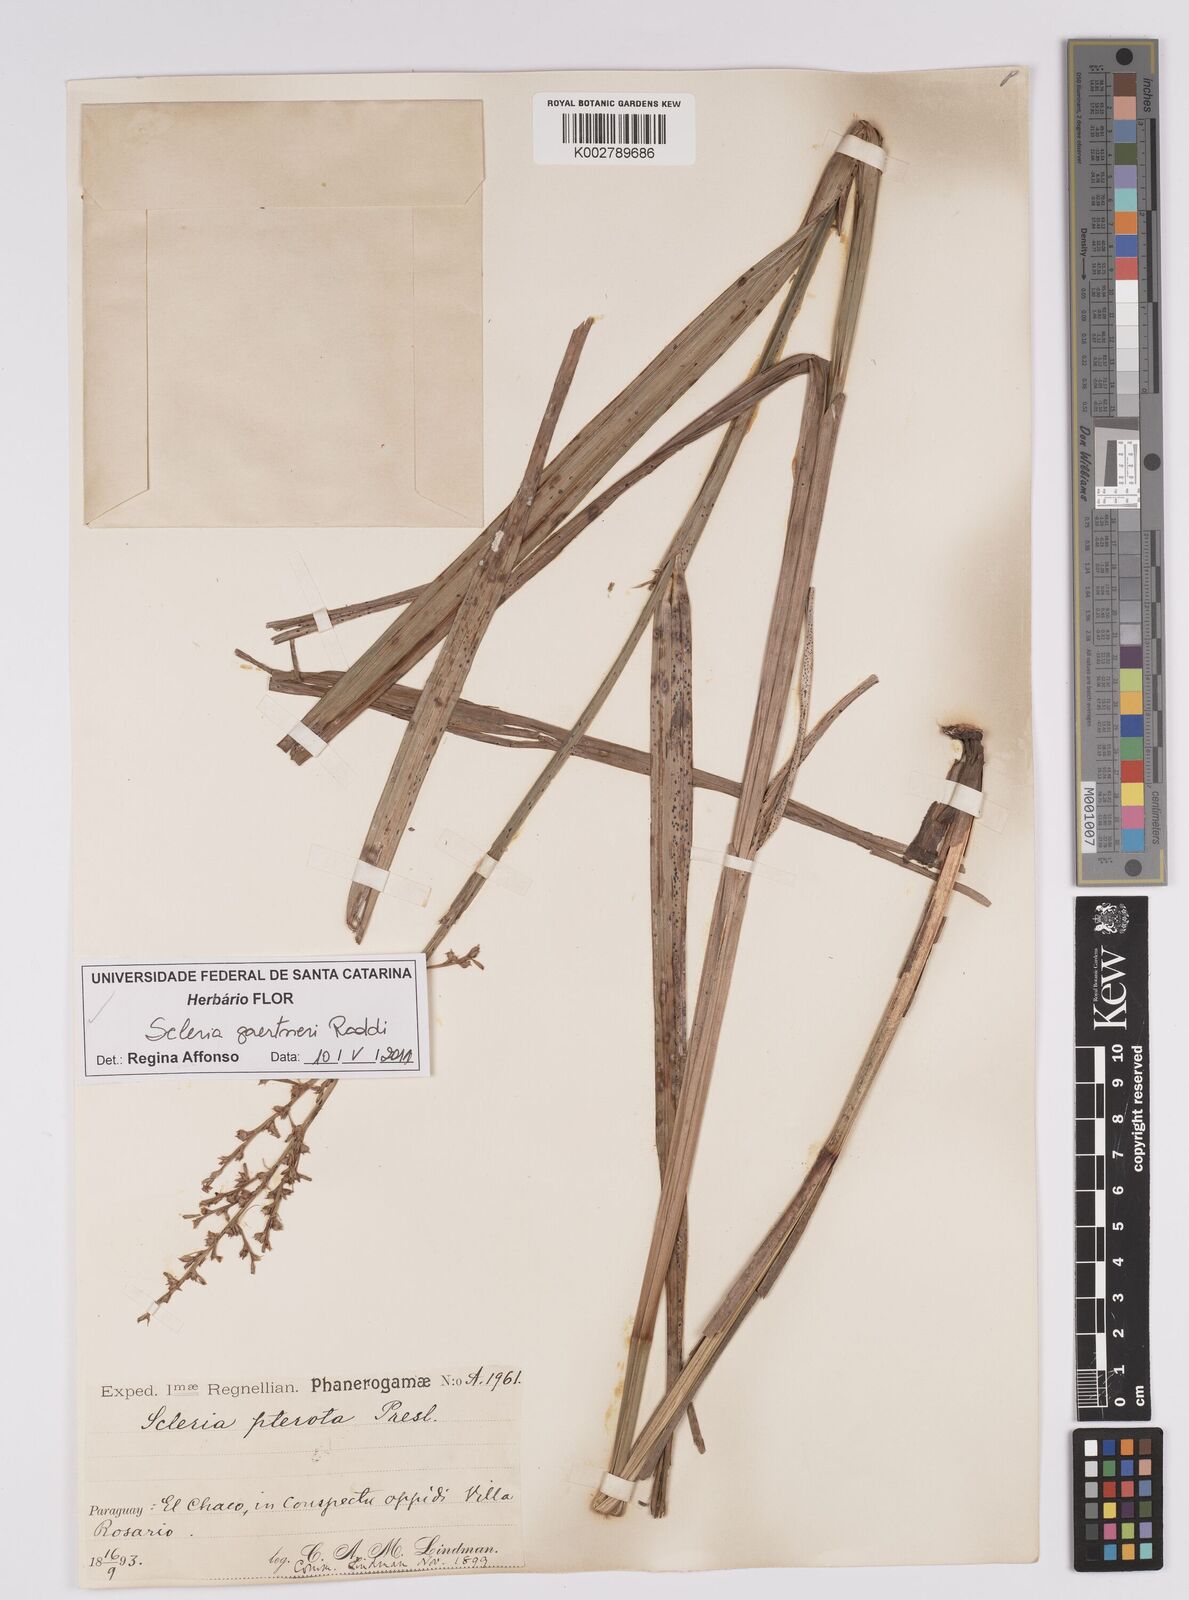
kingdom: Plantae
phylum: Tracheophyta
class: Liliopsida
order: Poales
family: Cyperaceae
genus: Scleria
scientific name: Scleria gaertneri
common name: Cortadera blanca
